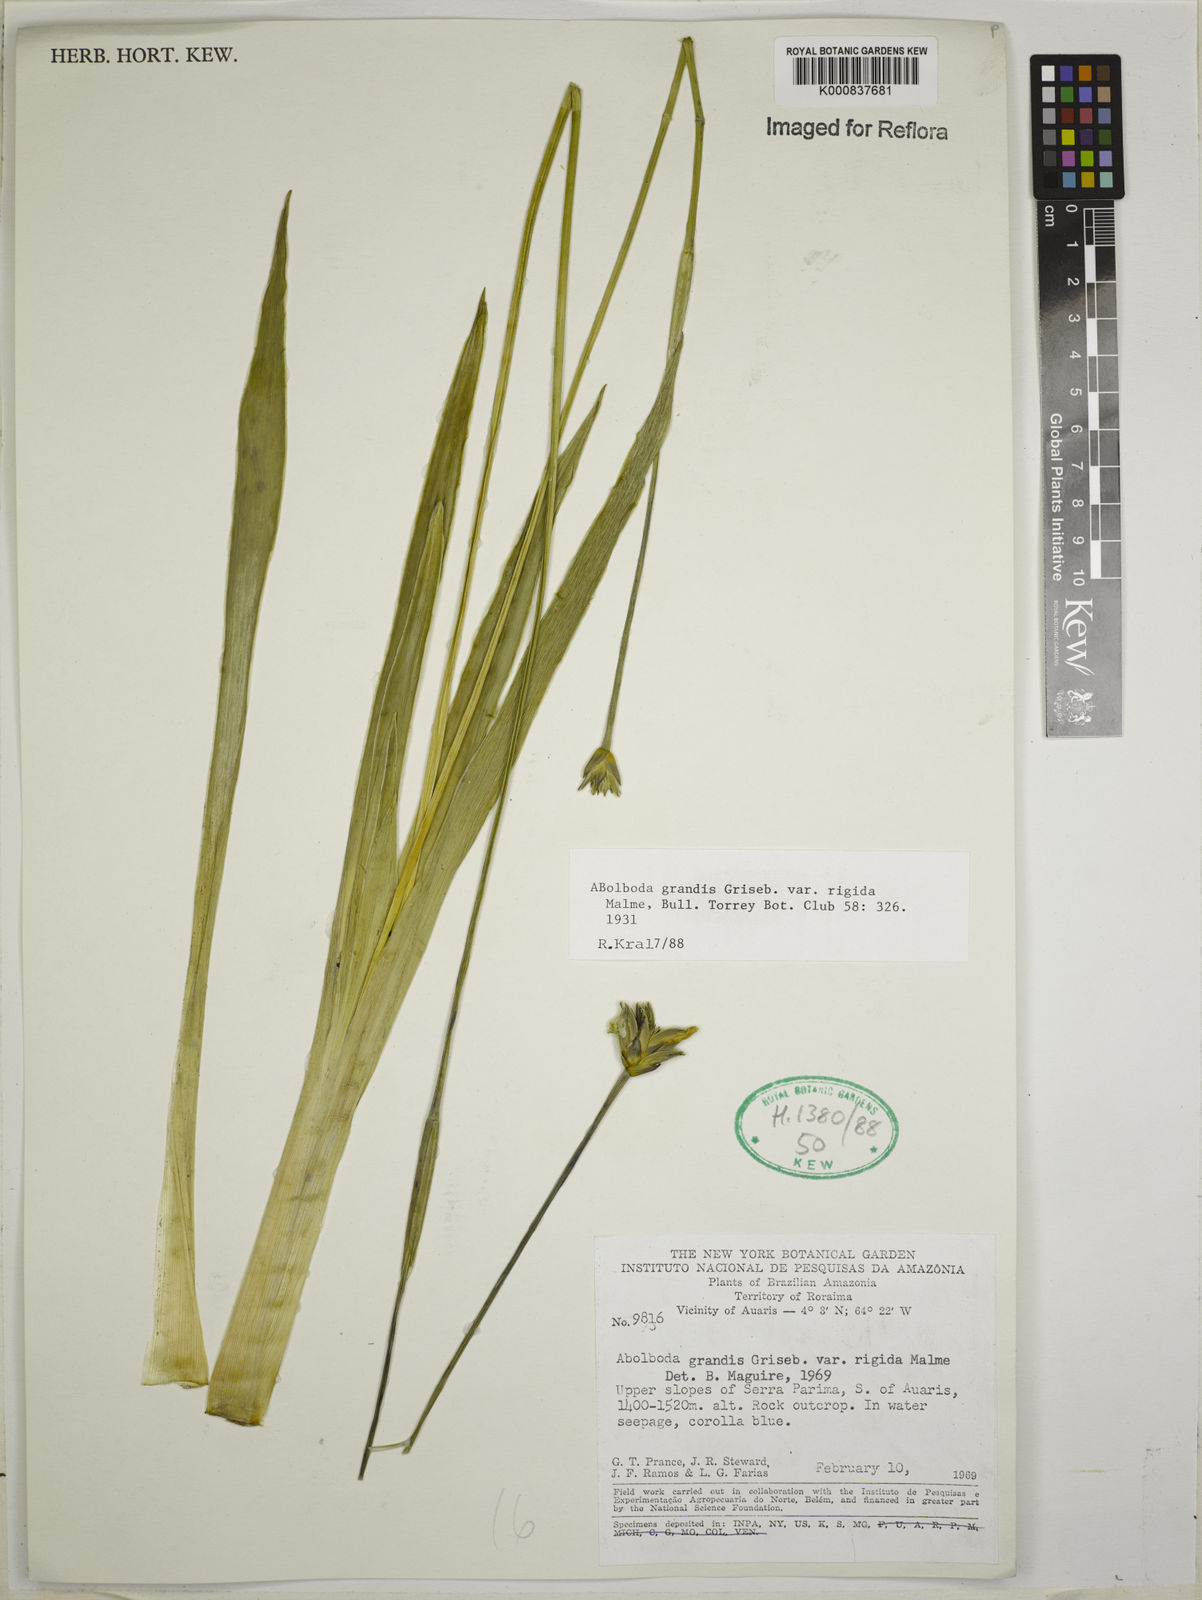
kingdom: Plantae
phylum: Tracheophyta
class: Liliopsida
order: Poales
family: Xyridaceae
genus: Abolboda
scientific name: Abolboda grandis
